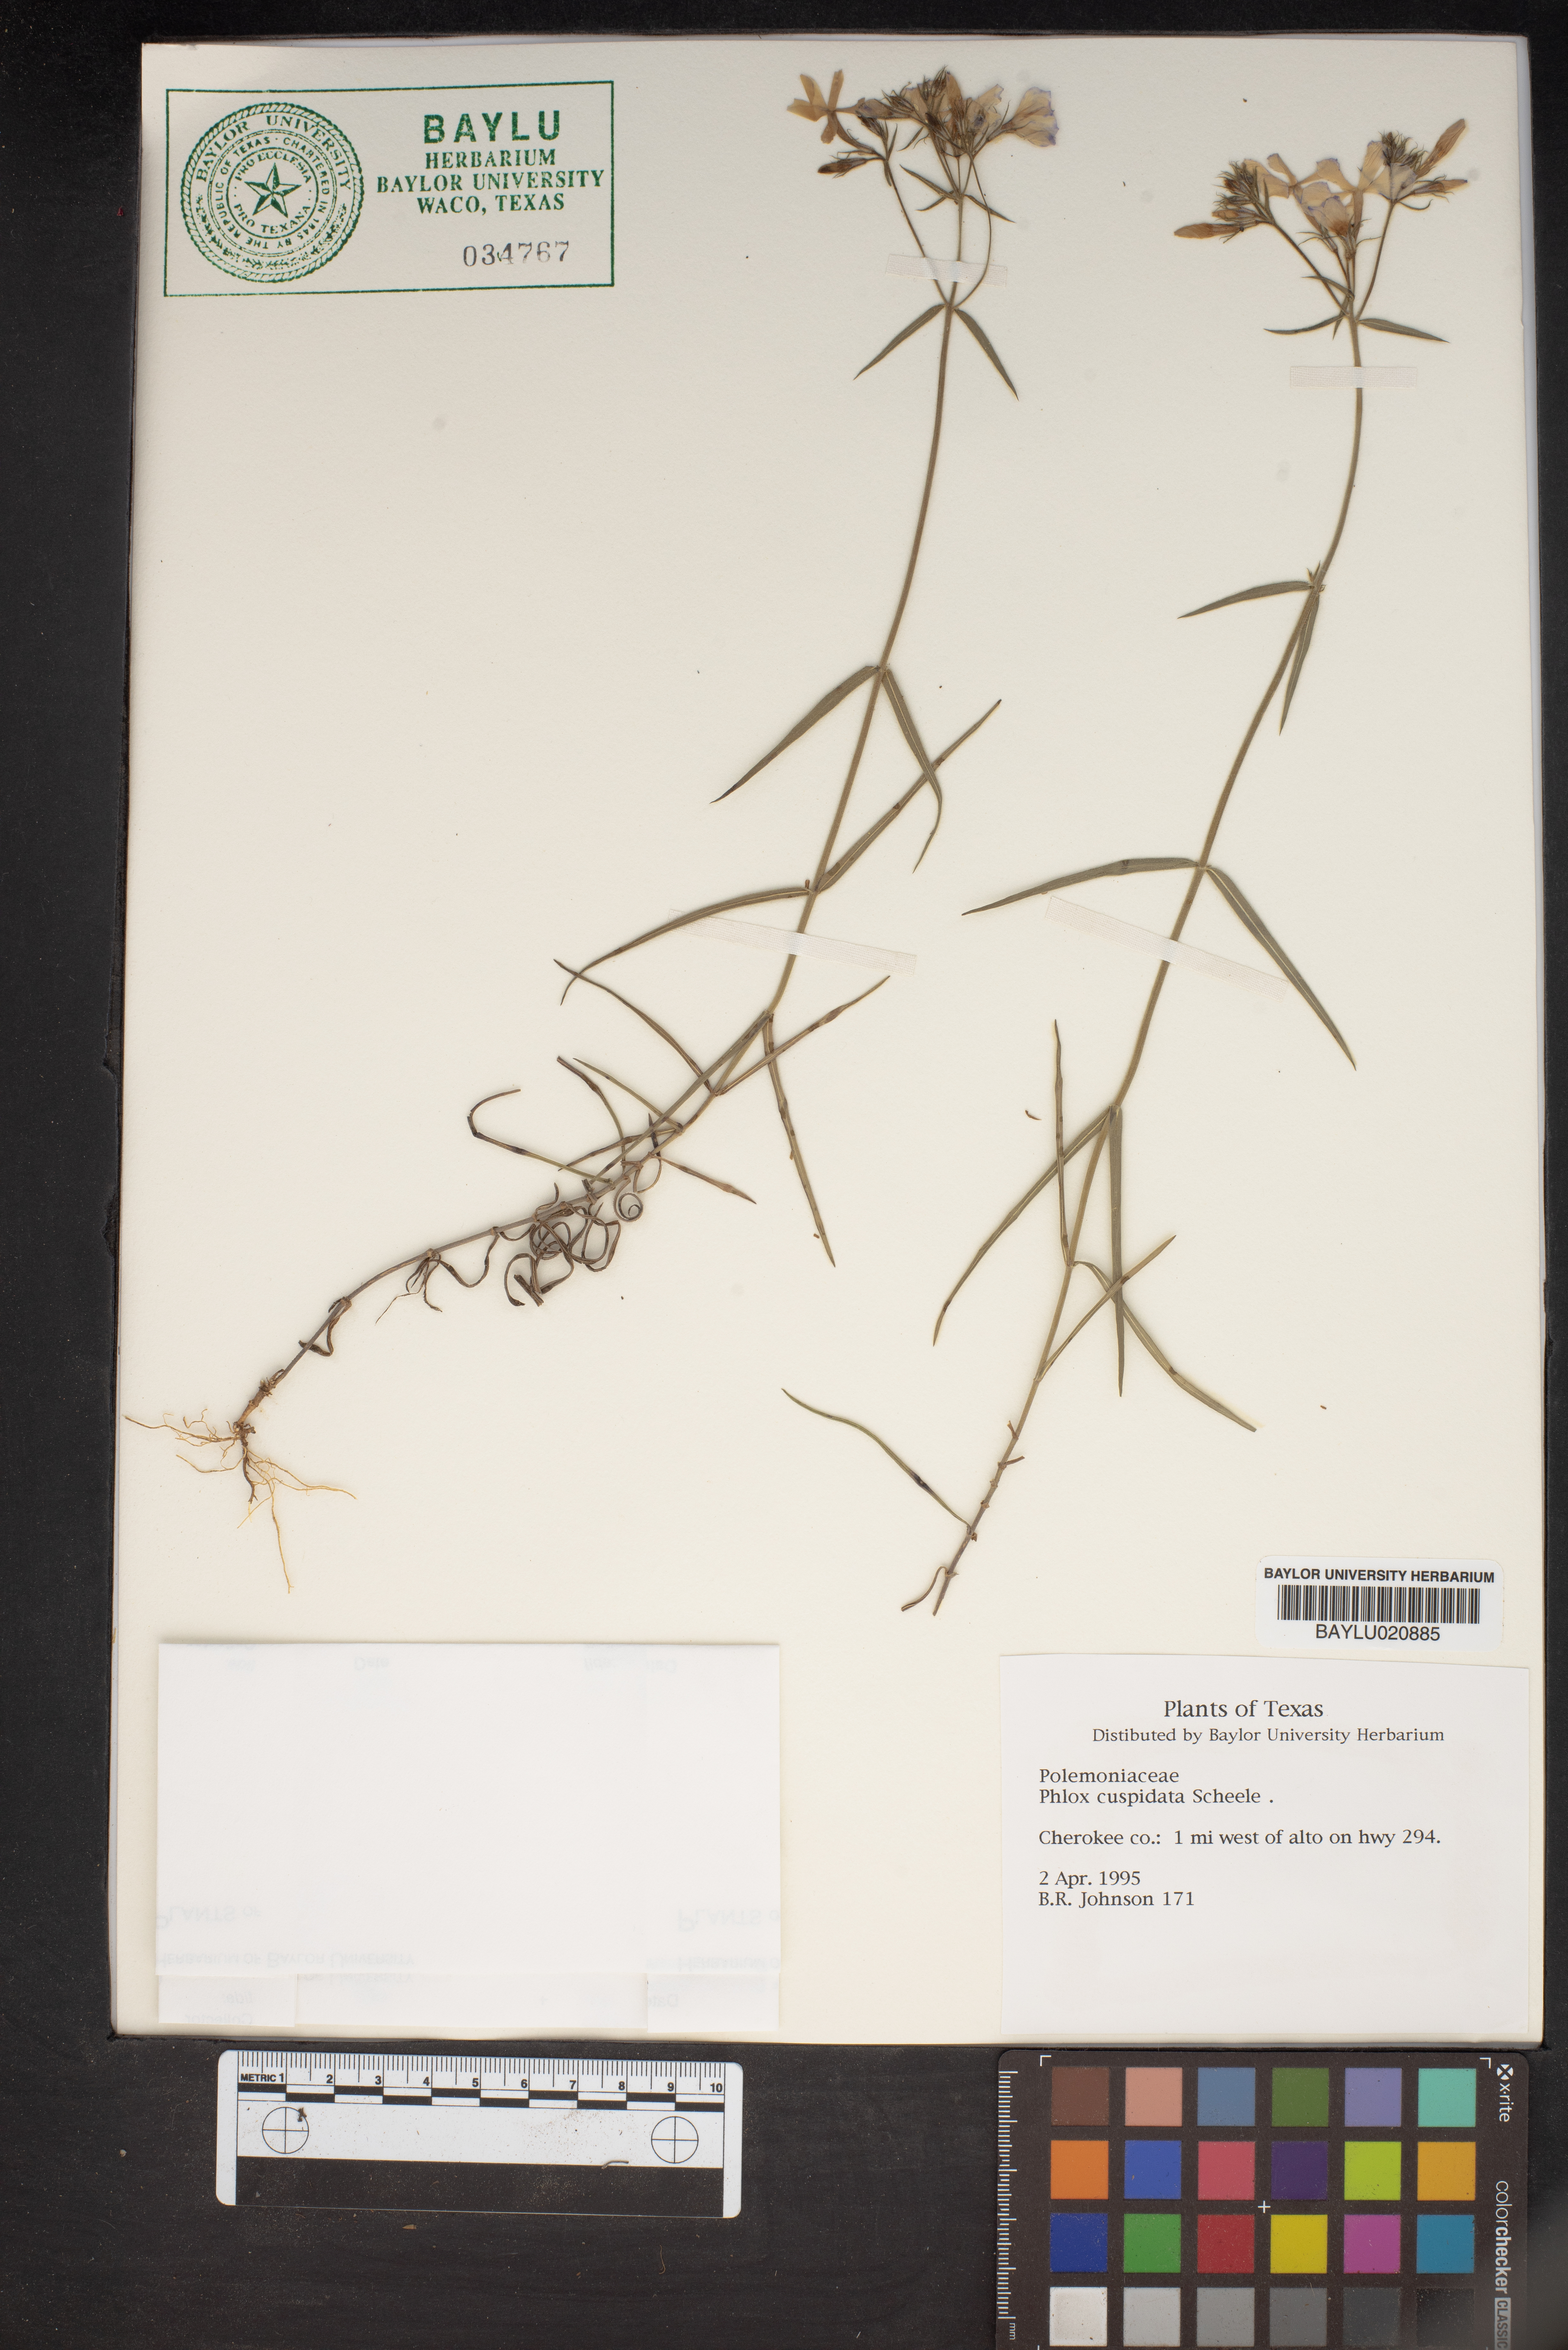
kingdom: Plantae
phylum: Tracheophyta
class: Magnoliopsida
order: Ericales
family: Polemoniaceae
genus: Phlox
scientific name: Phlox cuspidata
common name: Pointed phlox
